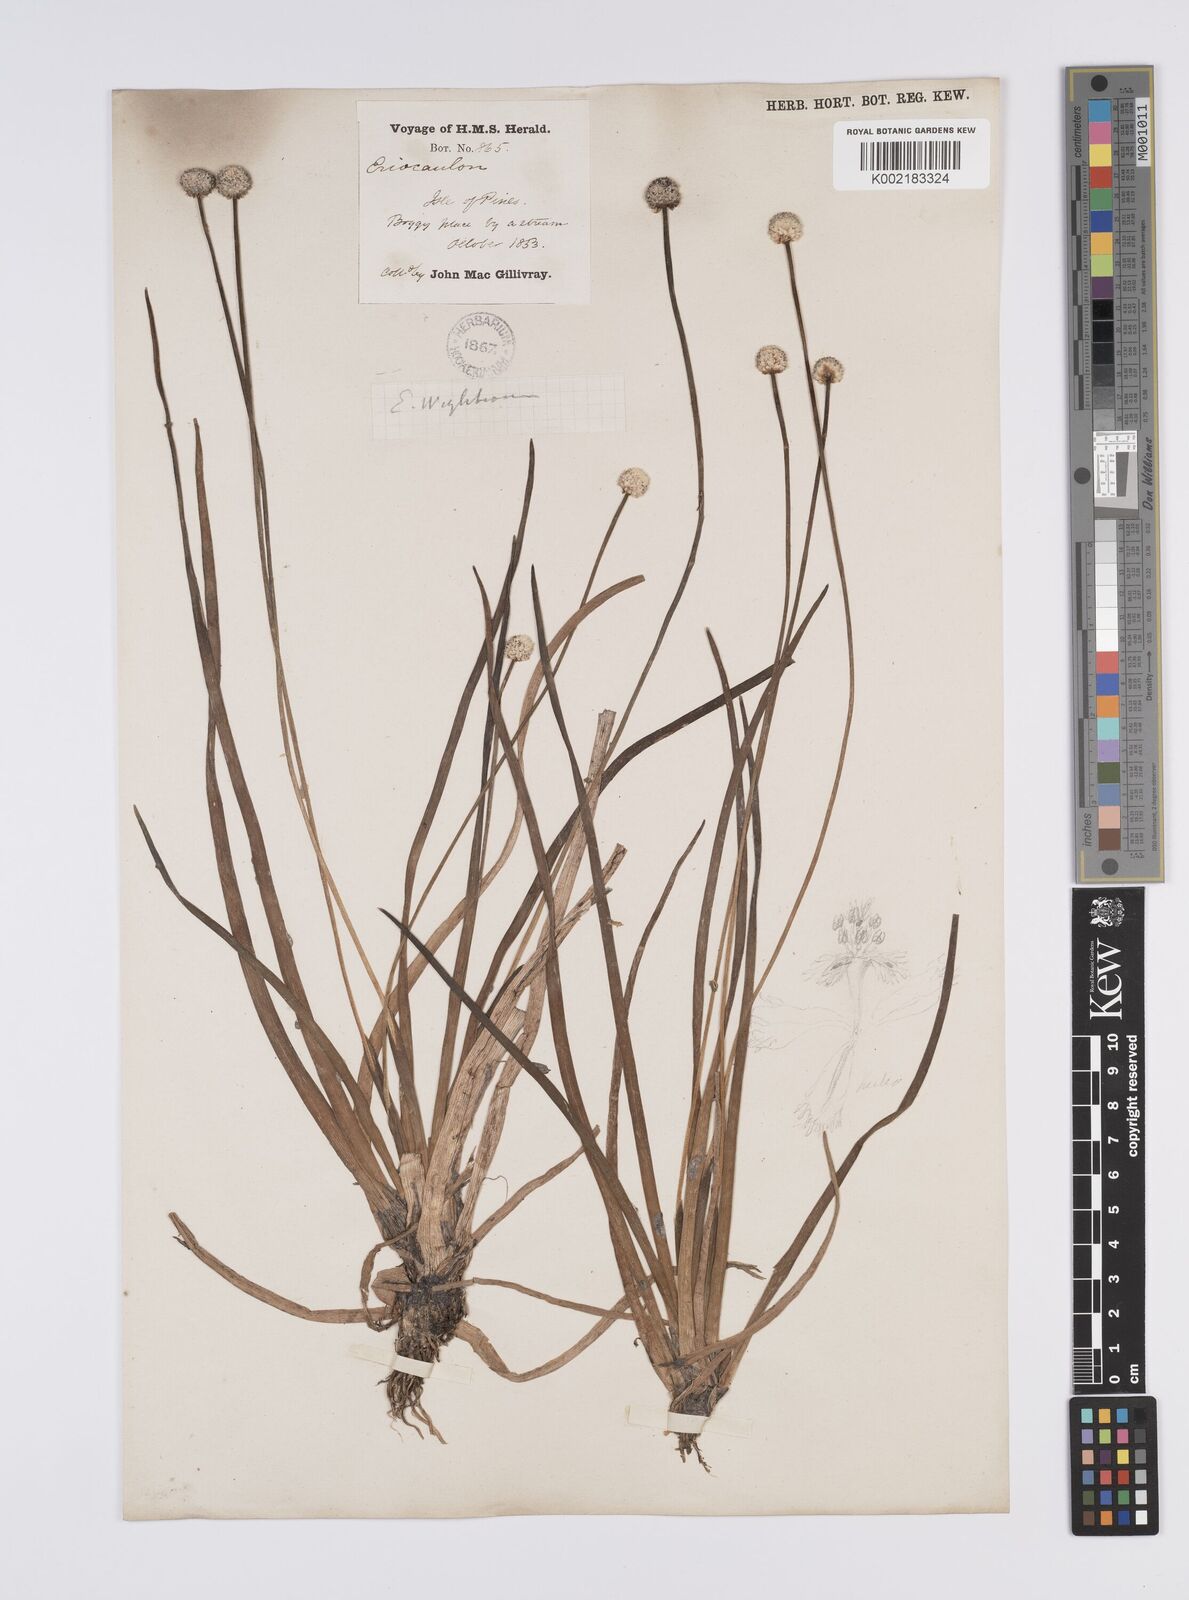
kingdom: Plantae
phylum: Tracheophyta
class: Liliopsida
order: Poales
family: Eriocaulaceae
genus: Eriocaulon
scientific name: Eriocaulon
